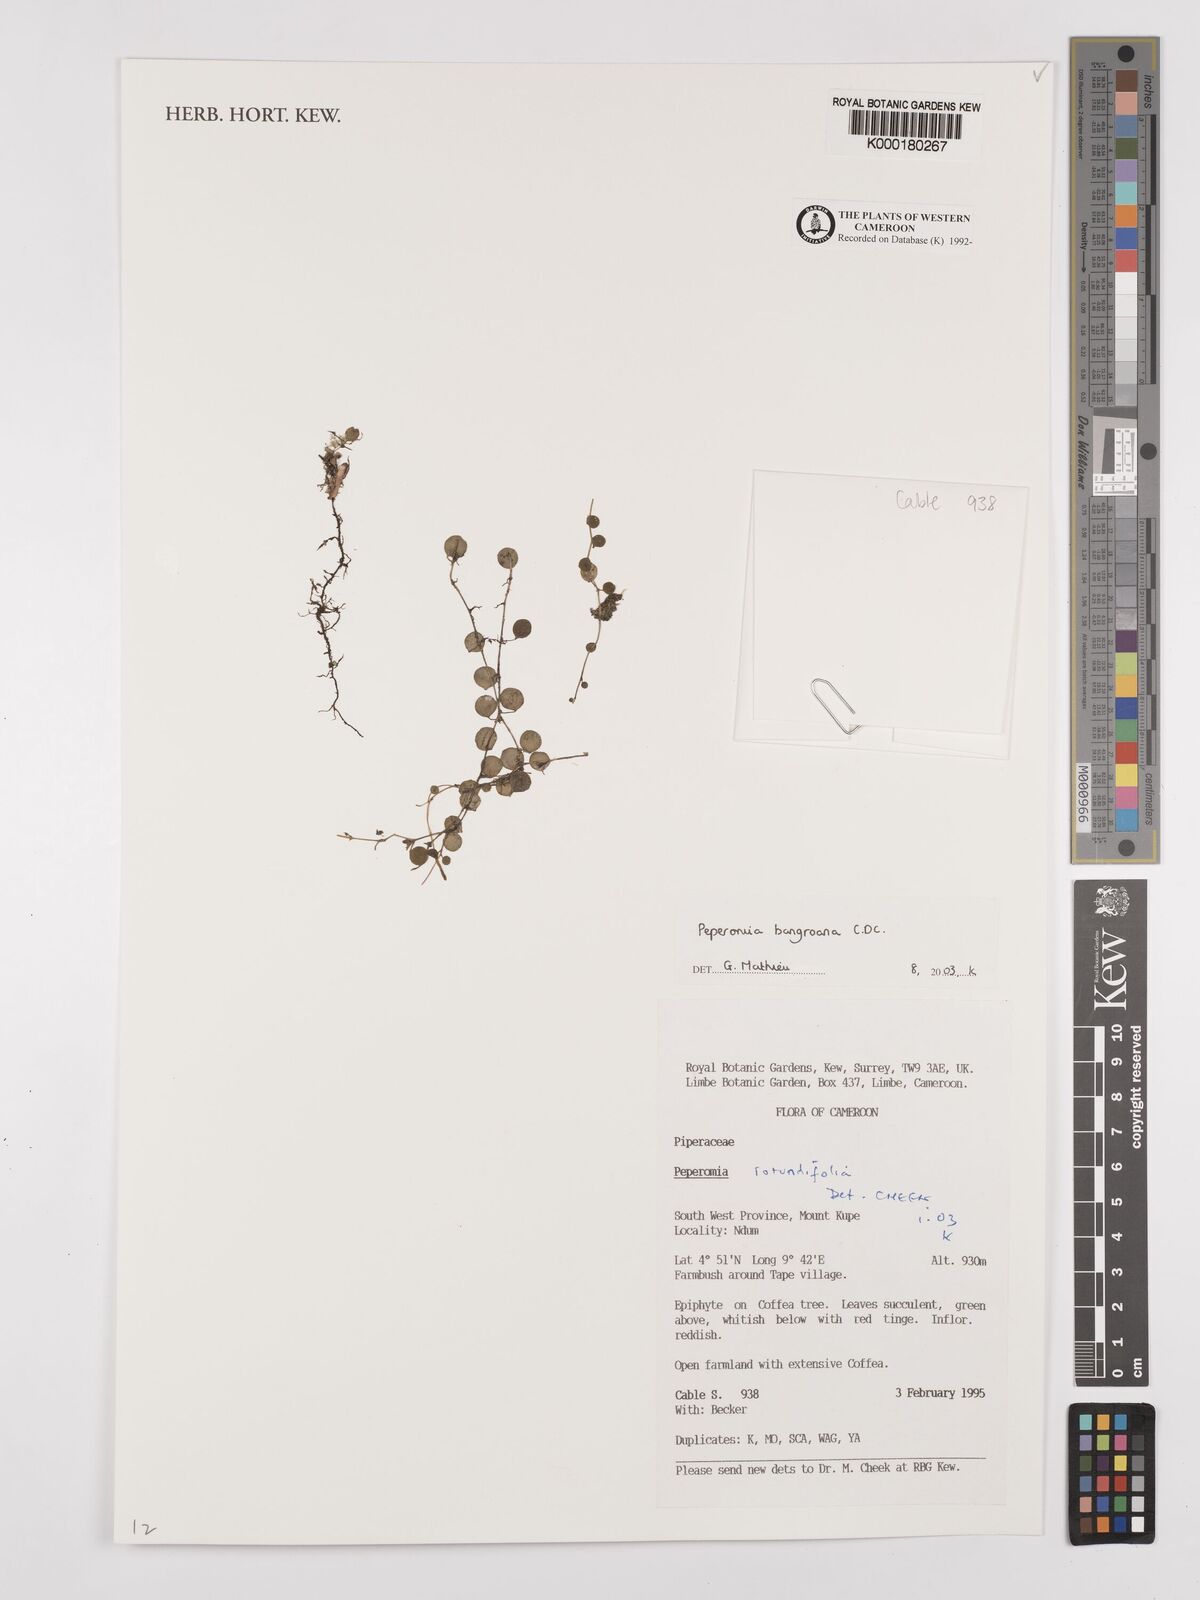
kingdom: Plantae
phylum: Tracheophyta
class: Magnoliopsida
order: Piperales
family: Piperaceae
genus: Peperomia
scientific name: Peperomia bangroana
